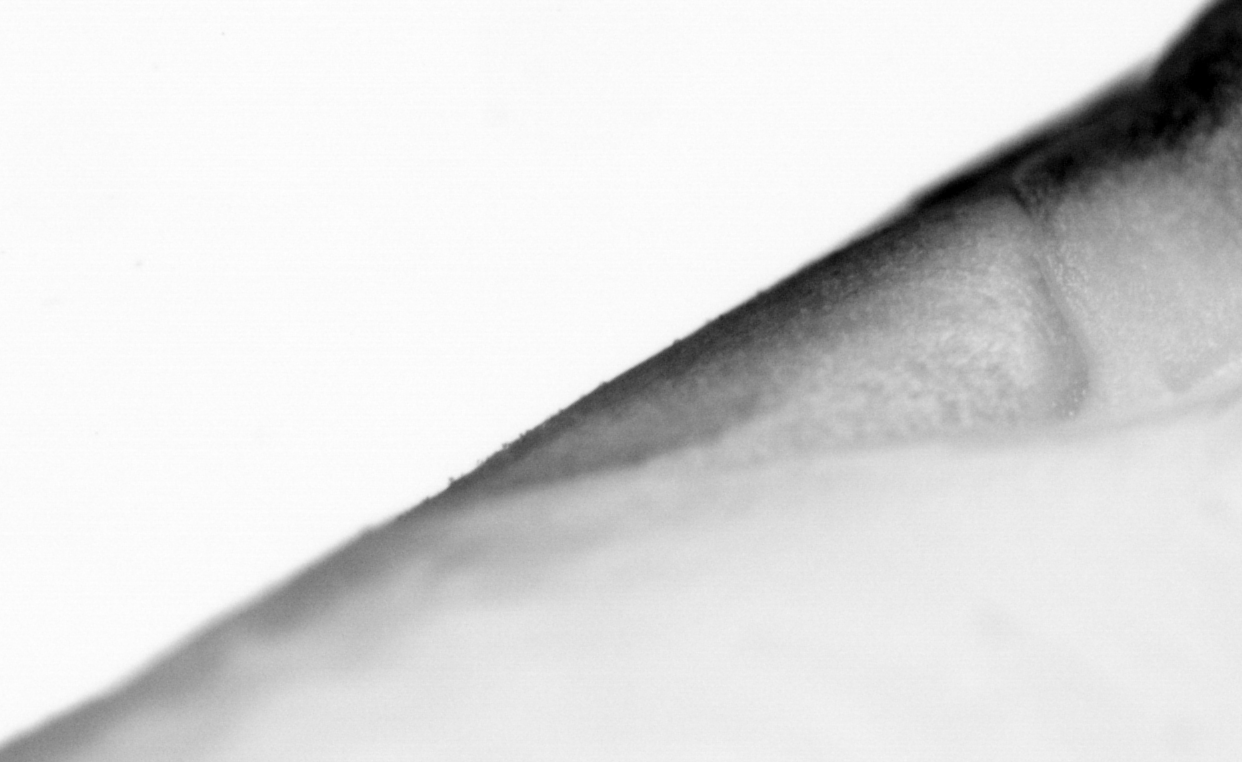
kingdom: Animalia
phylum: Chordata
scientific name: Chordata
